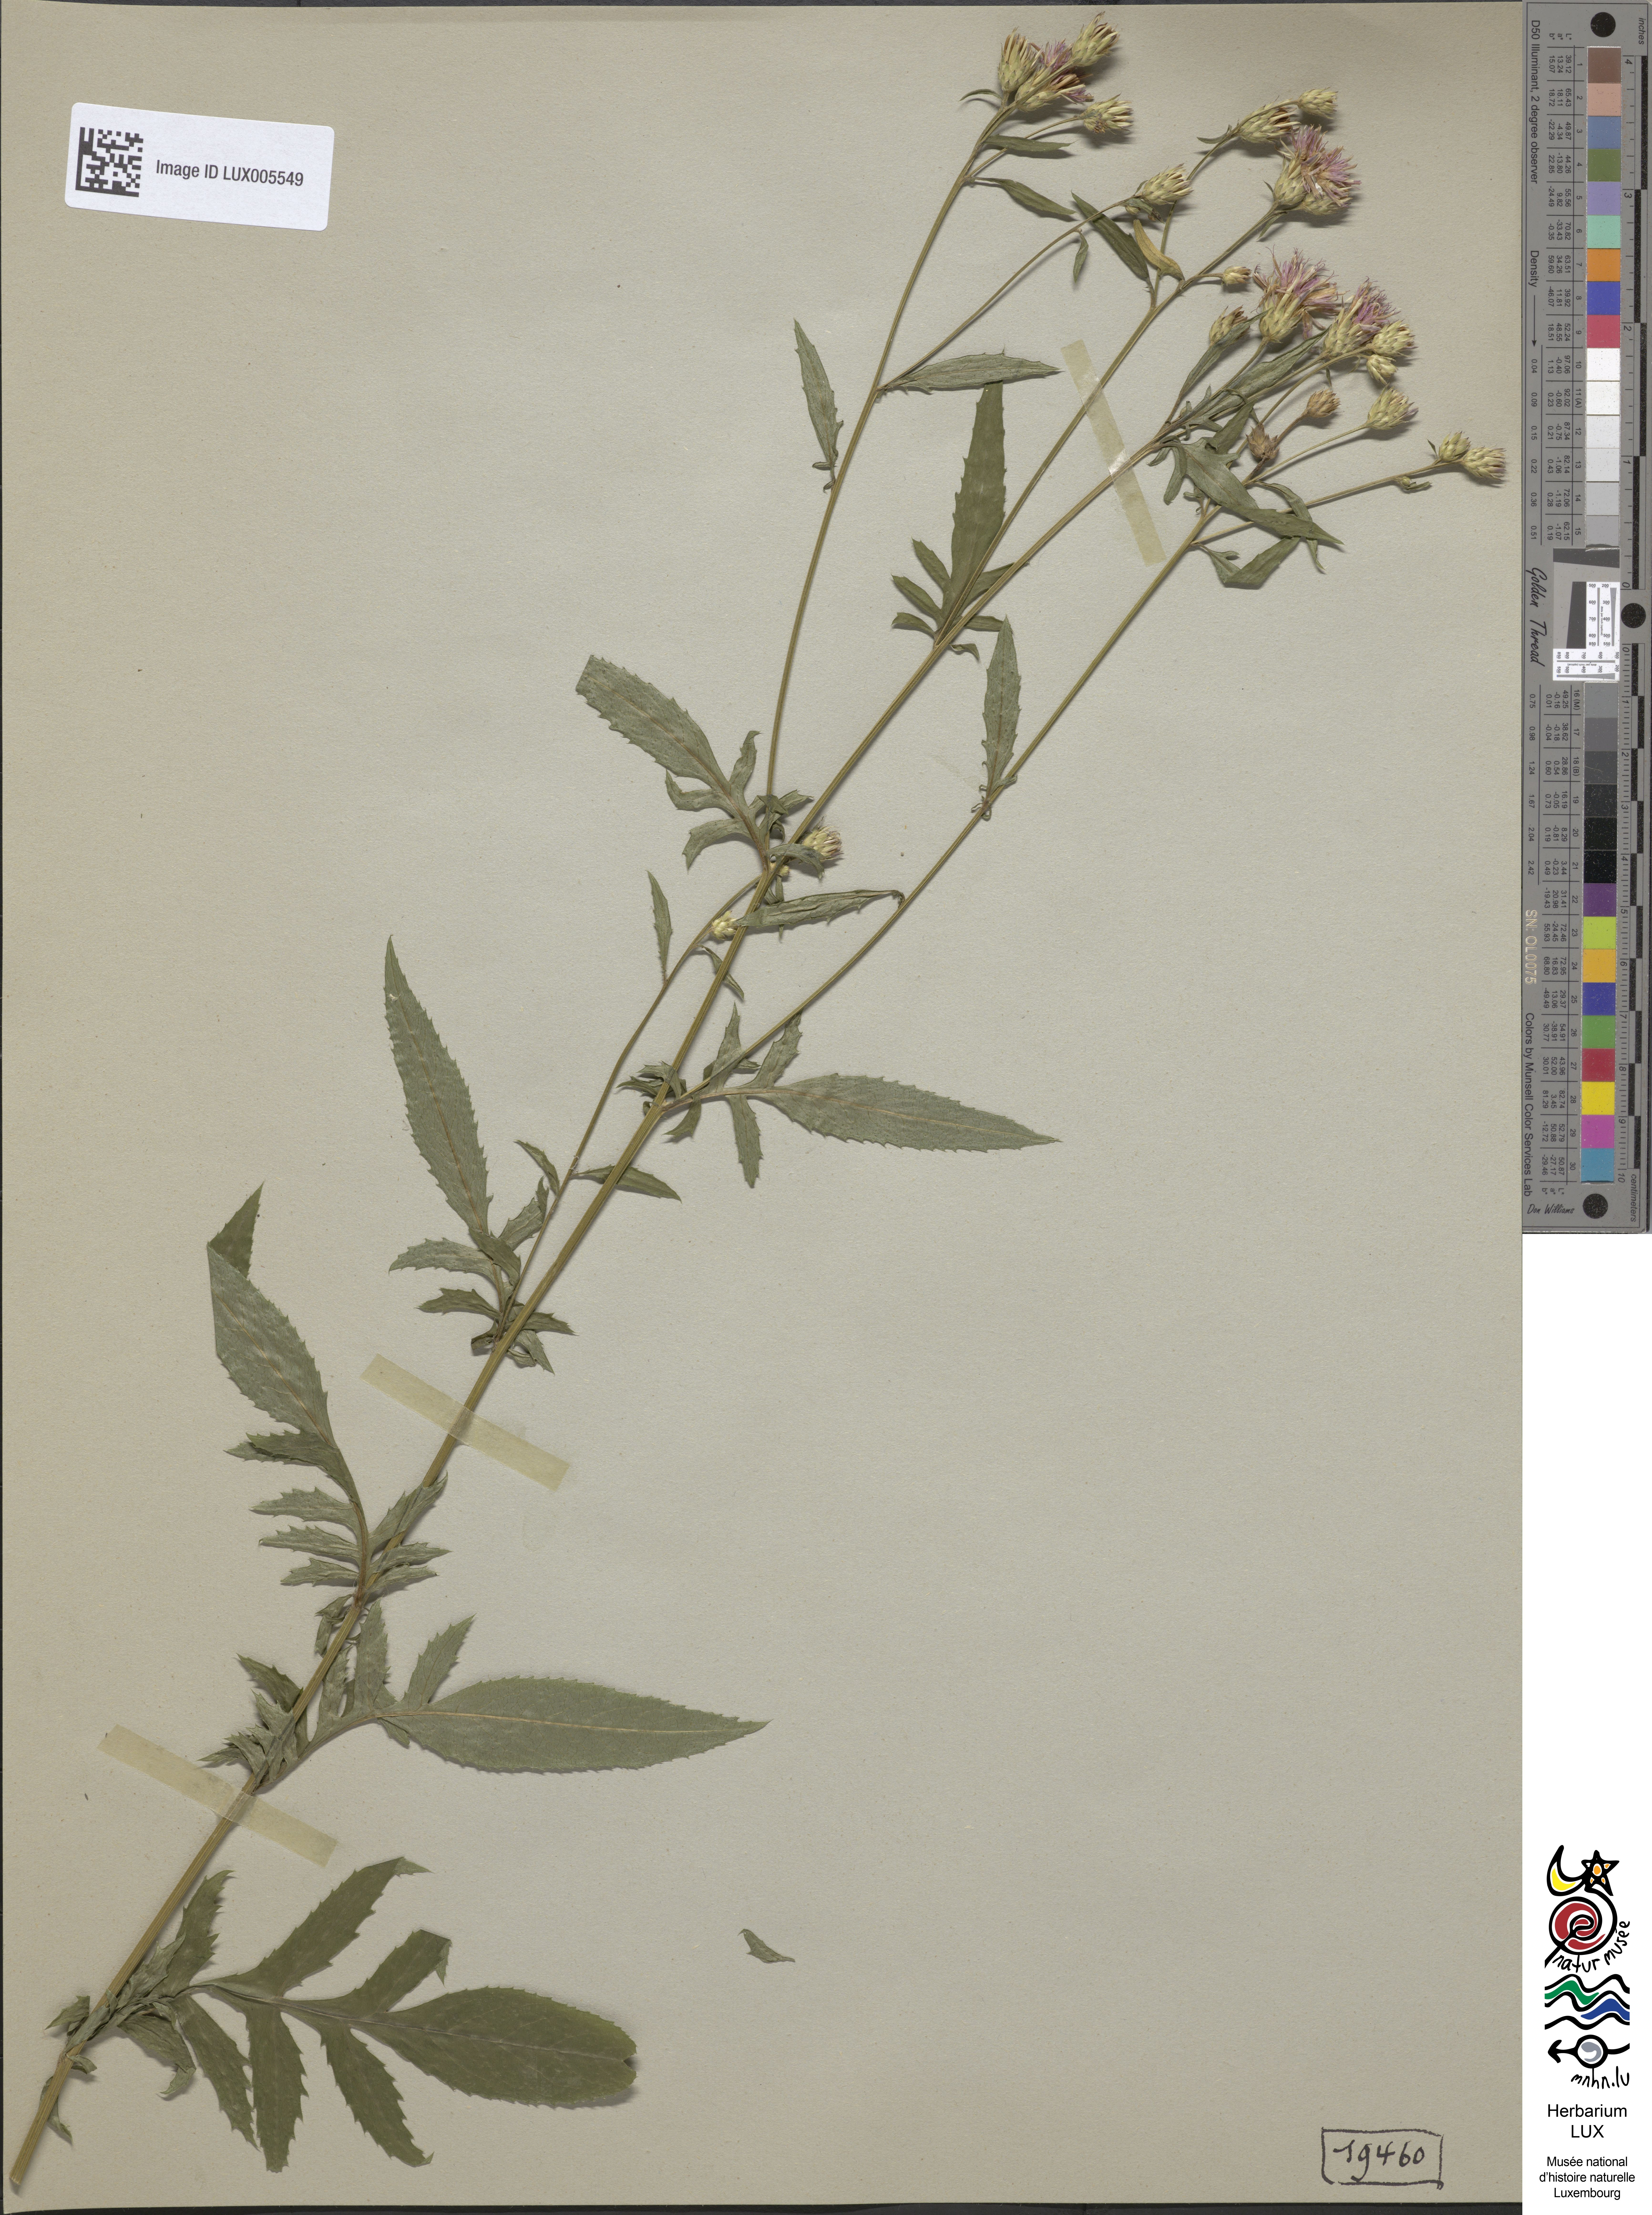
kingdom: Plantae
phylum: Tracheophyta
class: Magnoliopsida
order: Asterales
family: Asteraceae
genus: Serratula
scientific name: Serratula tinctoria
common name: Saw-wort
